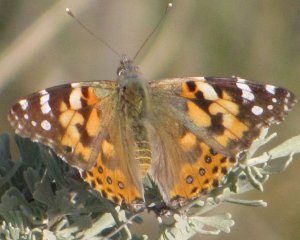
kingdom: Animalia
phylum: Arthropoda
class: Insecta
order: Lepidoptera
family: Nymphalidae
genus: Vanessa
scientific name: Vanessa cardui
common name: Painted Lady
